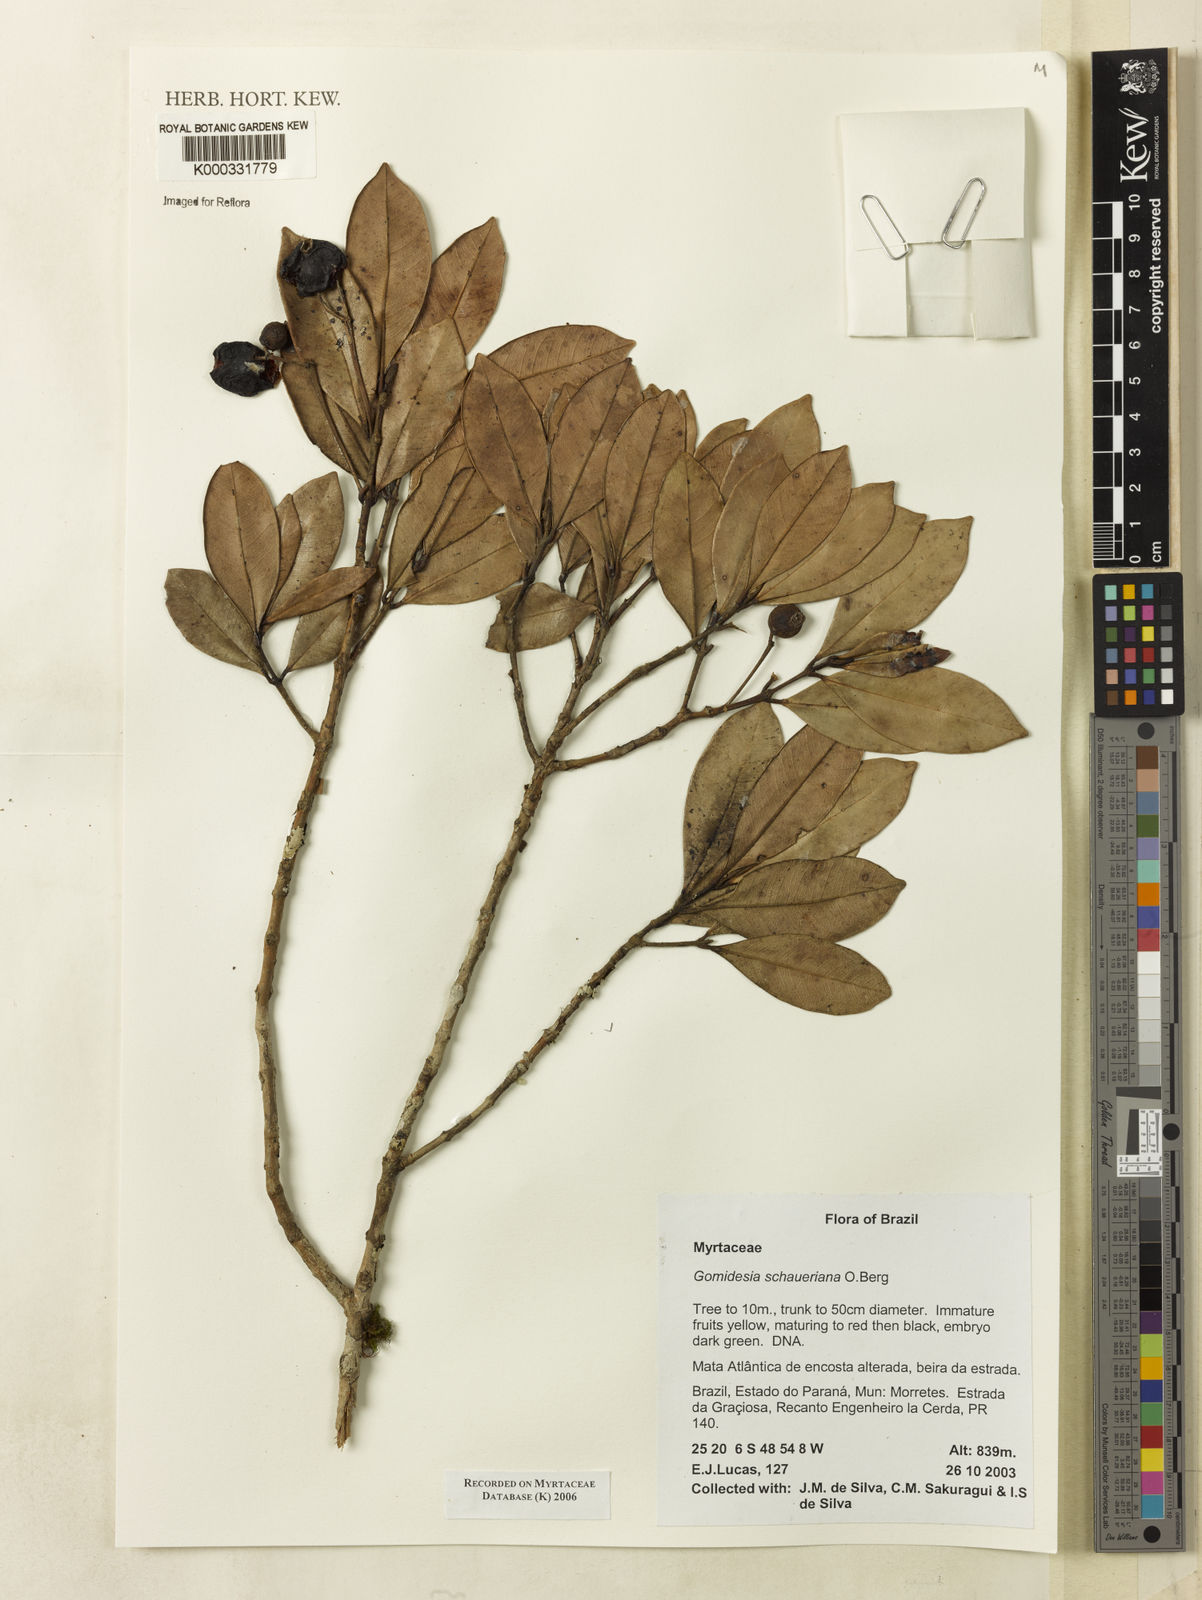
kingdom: Plantae
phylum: Tracheophyta
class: Magnoliopsida
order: Myrtales
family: Myrtaceae
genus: Myrcia
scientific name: Myrcia freyreissiana
